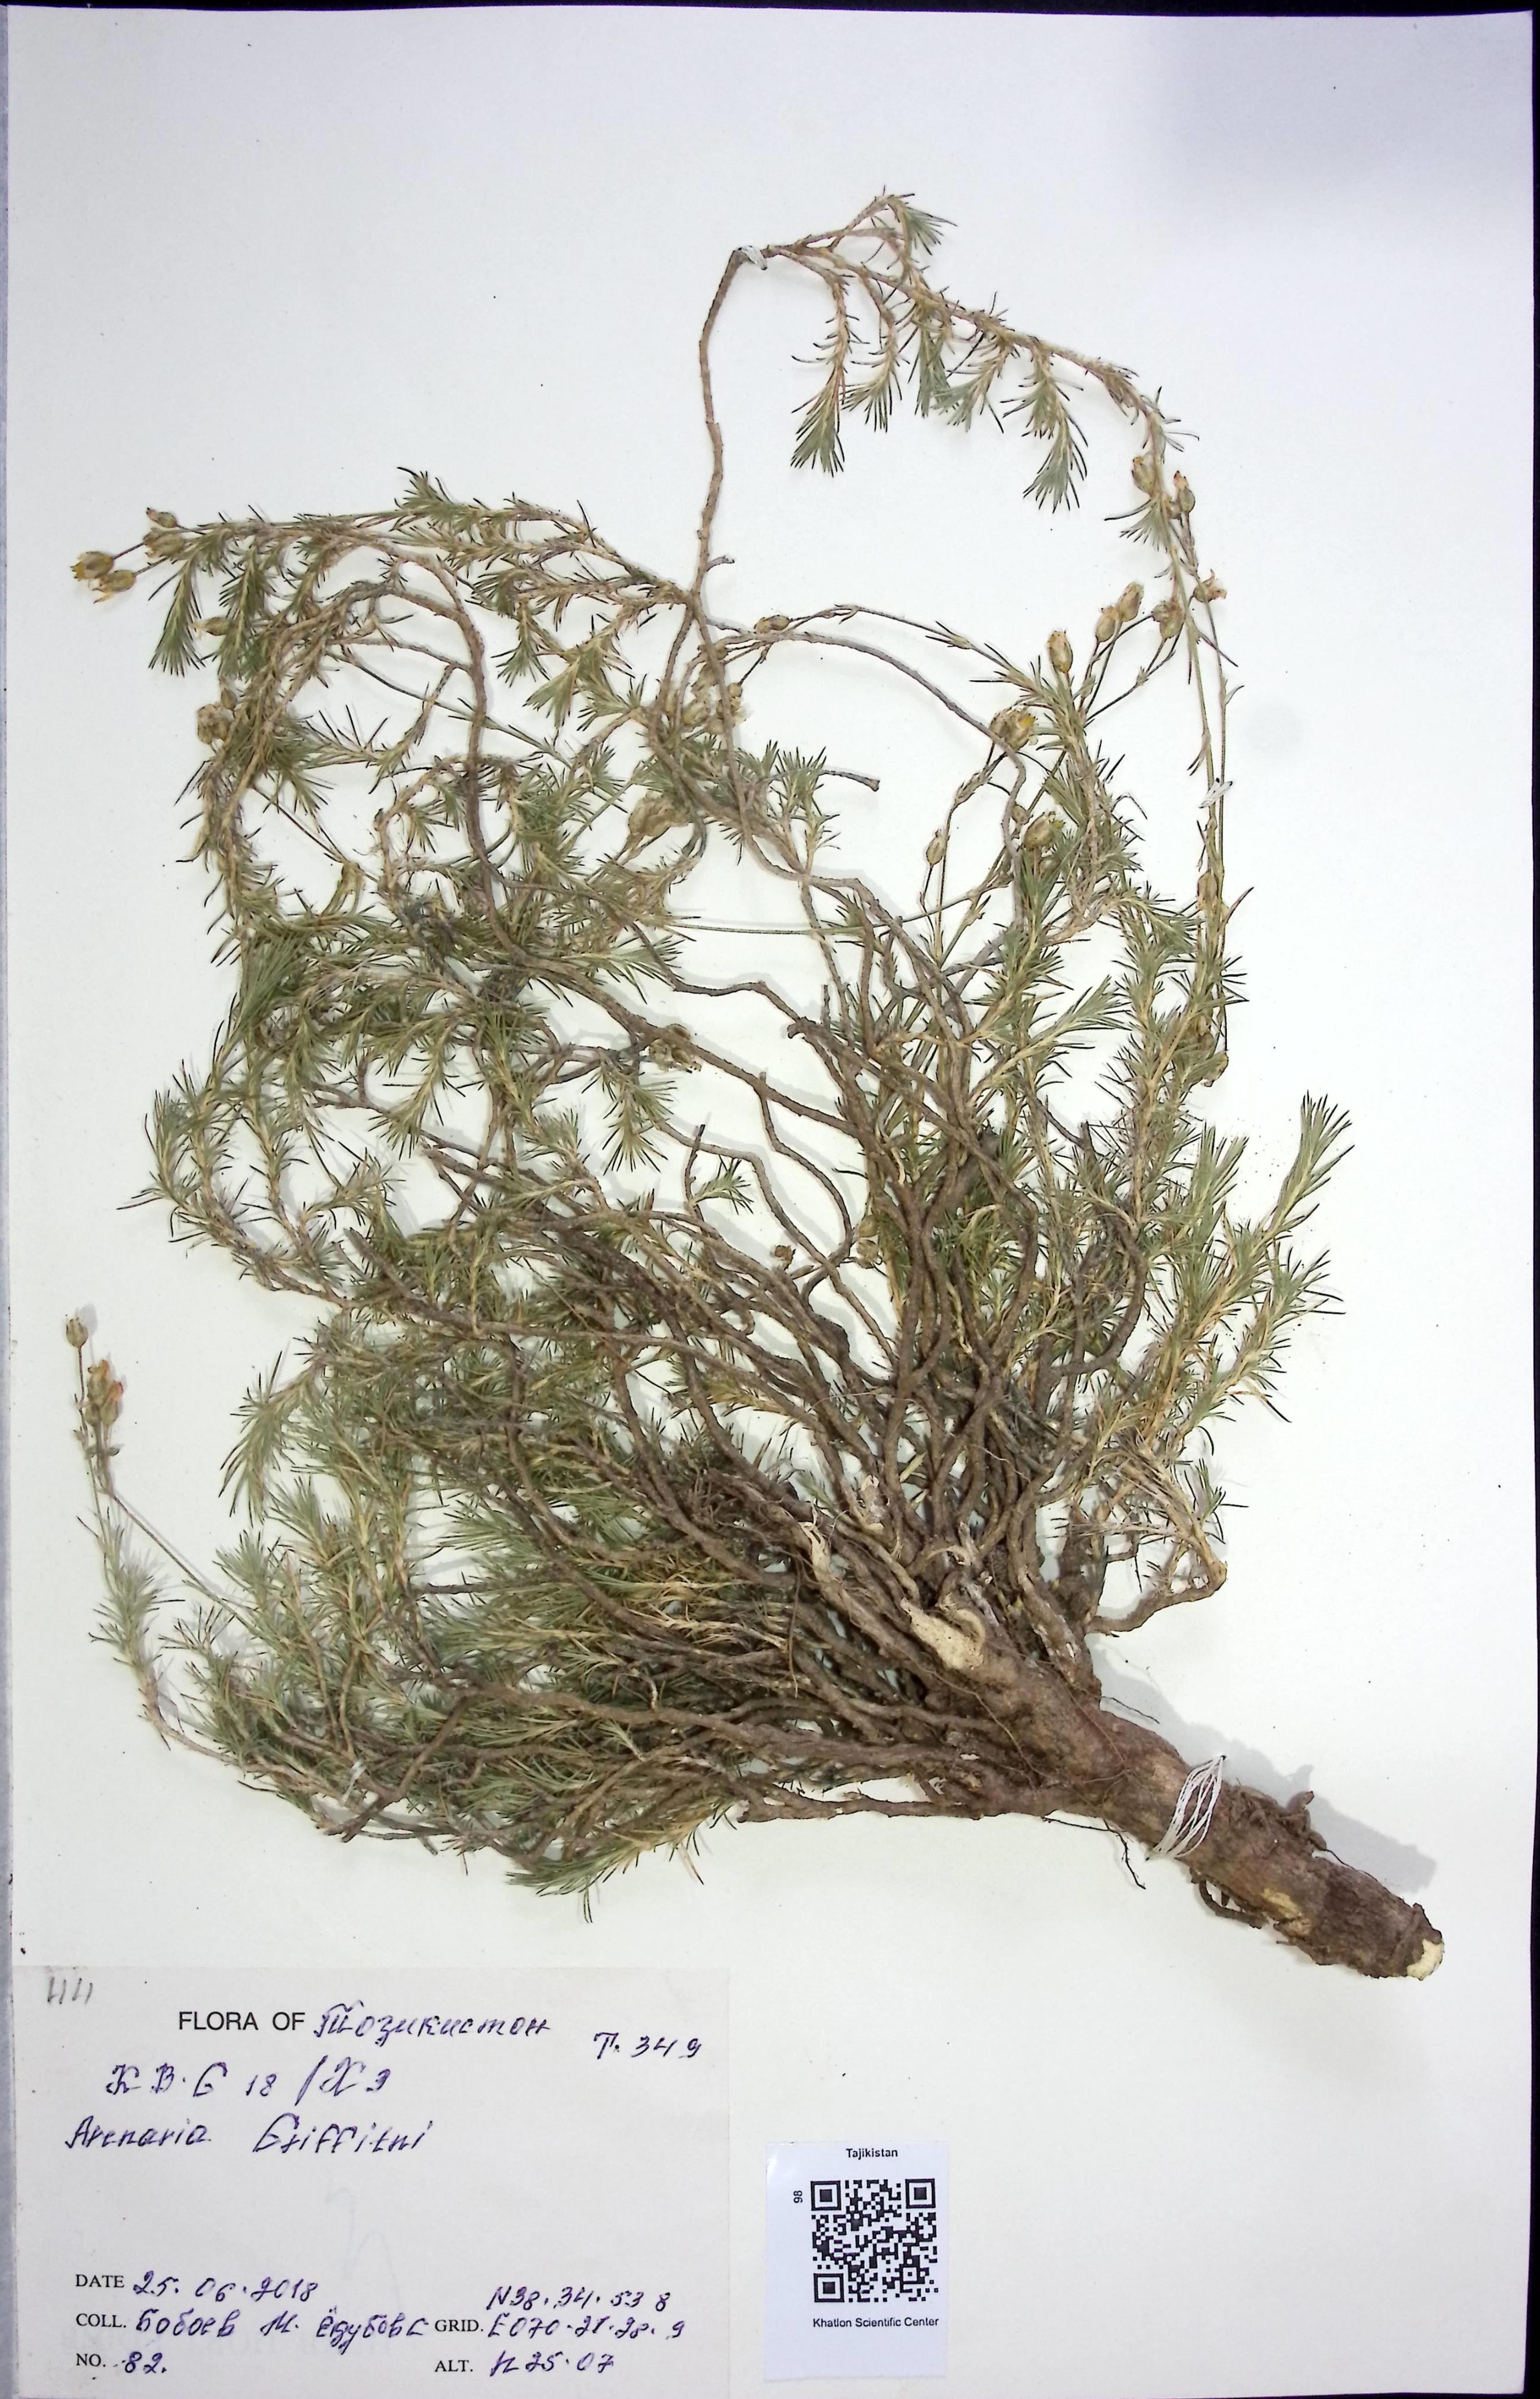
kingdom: Plantae
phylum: Tracheophyta
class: Magnoliopsida
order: Brassicales
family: Brassicaceae
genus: Arenaria
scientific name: Arenaria
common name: Arenaria
